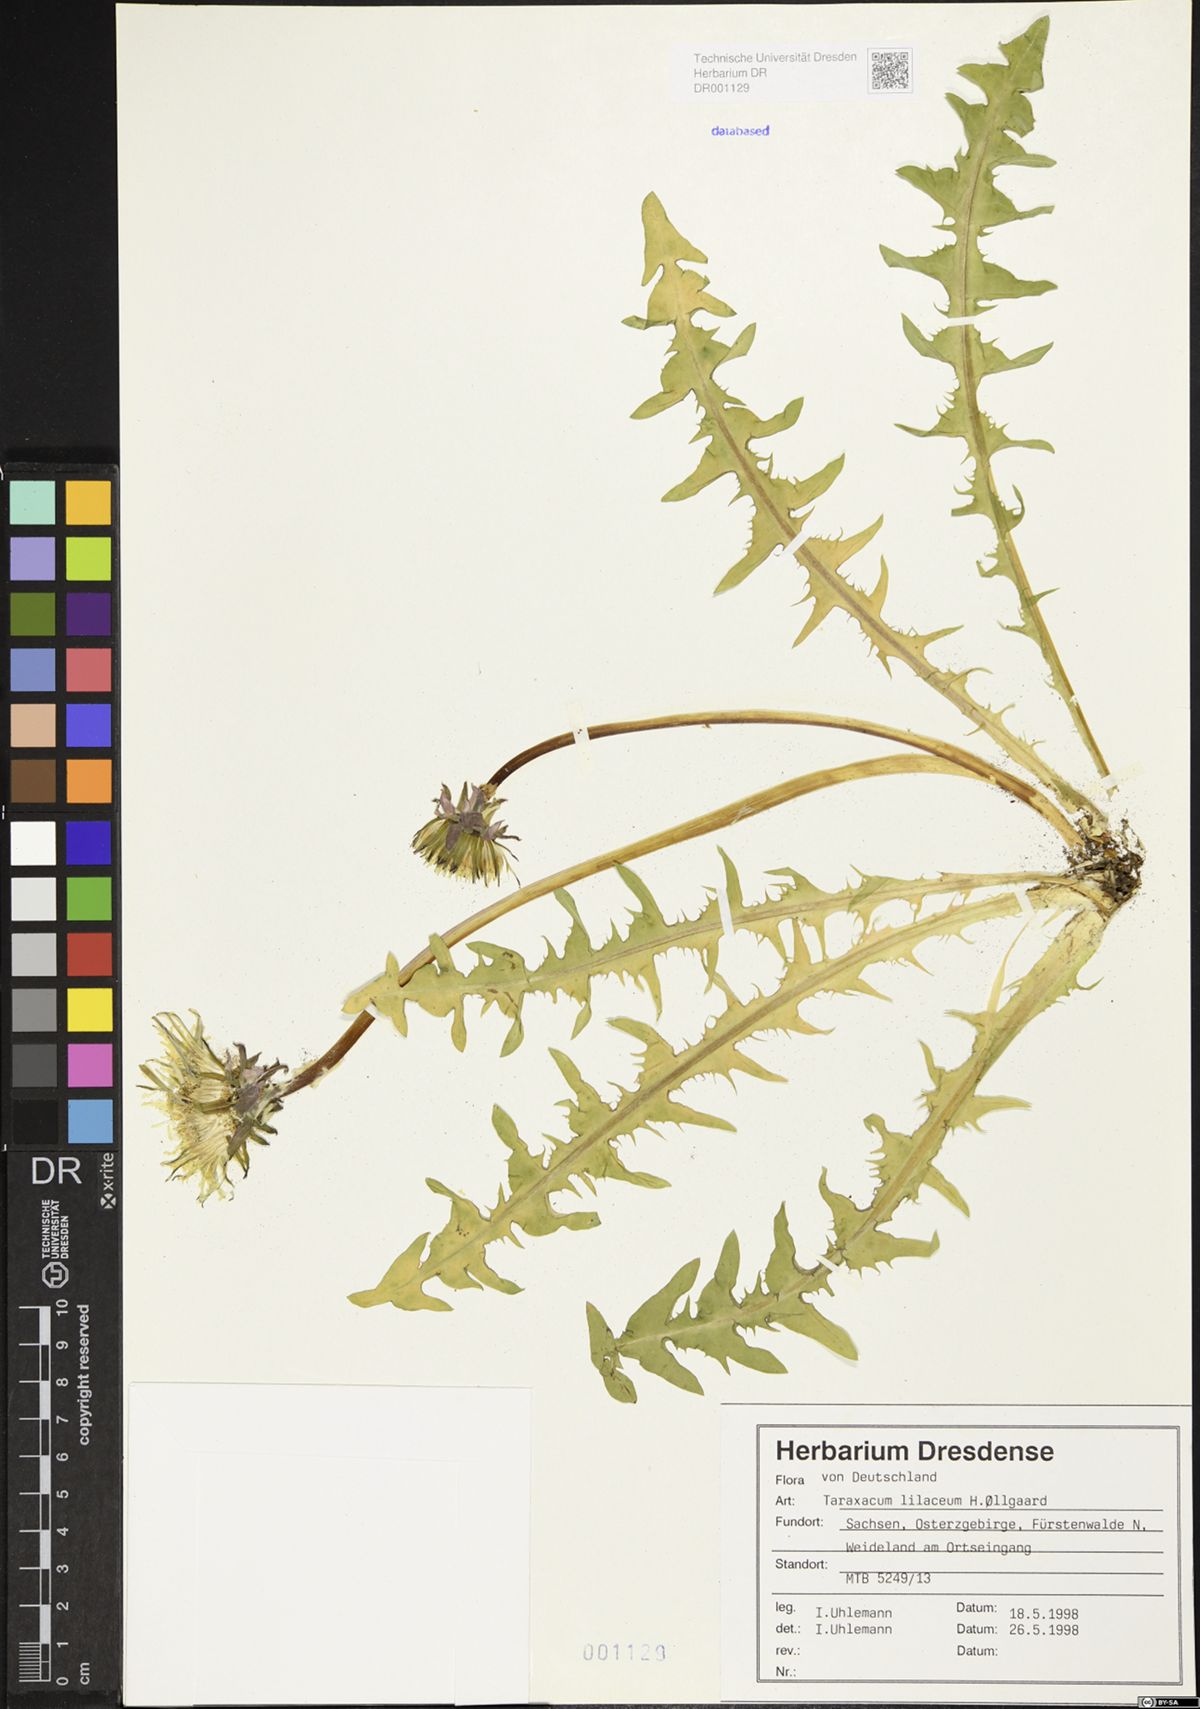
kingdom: Plantae
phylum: Tracheophyta
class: Magnoliopsida
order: Asterales
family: Asteraceae
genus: Taraxacum
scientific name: Taraxacum floccosum
